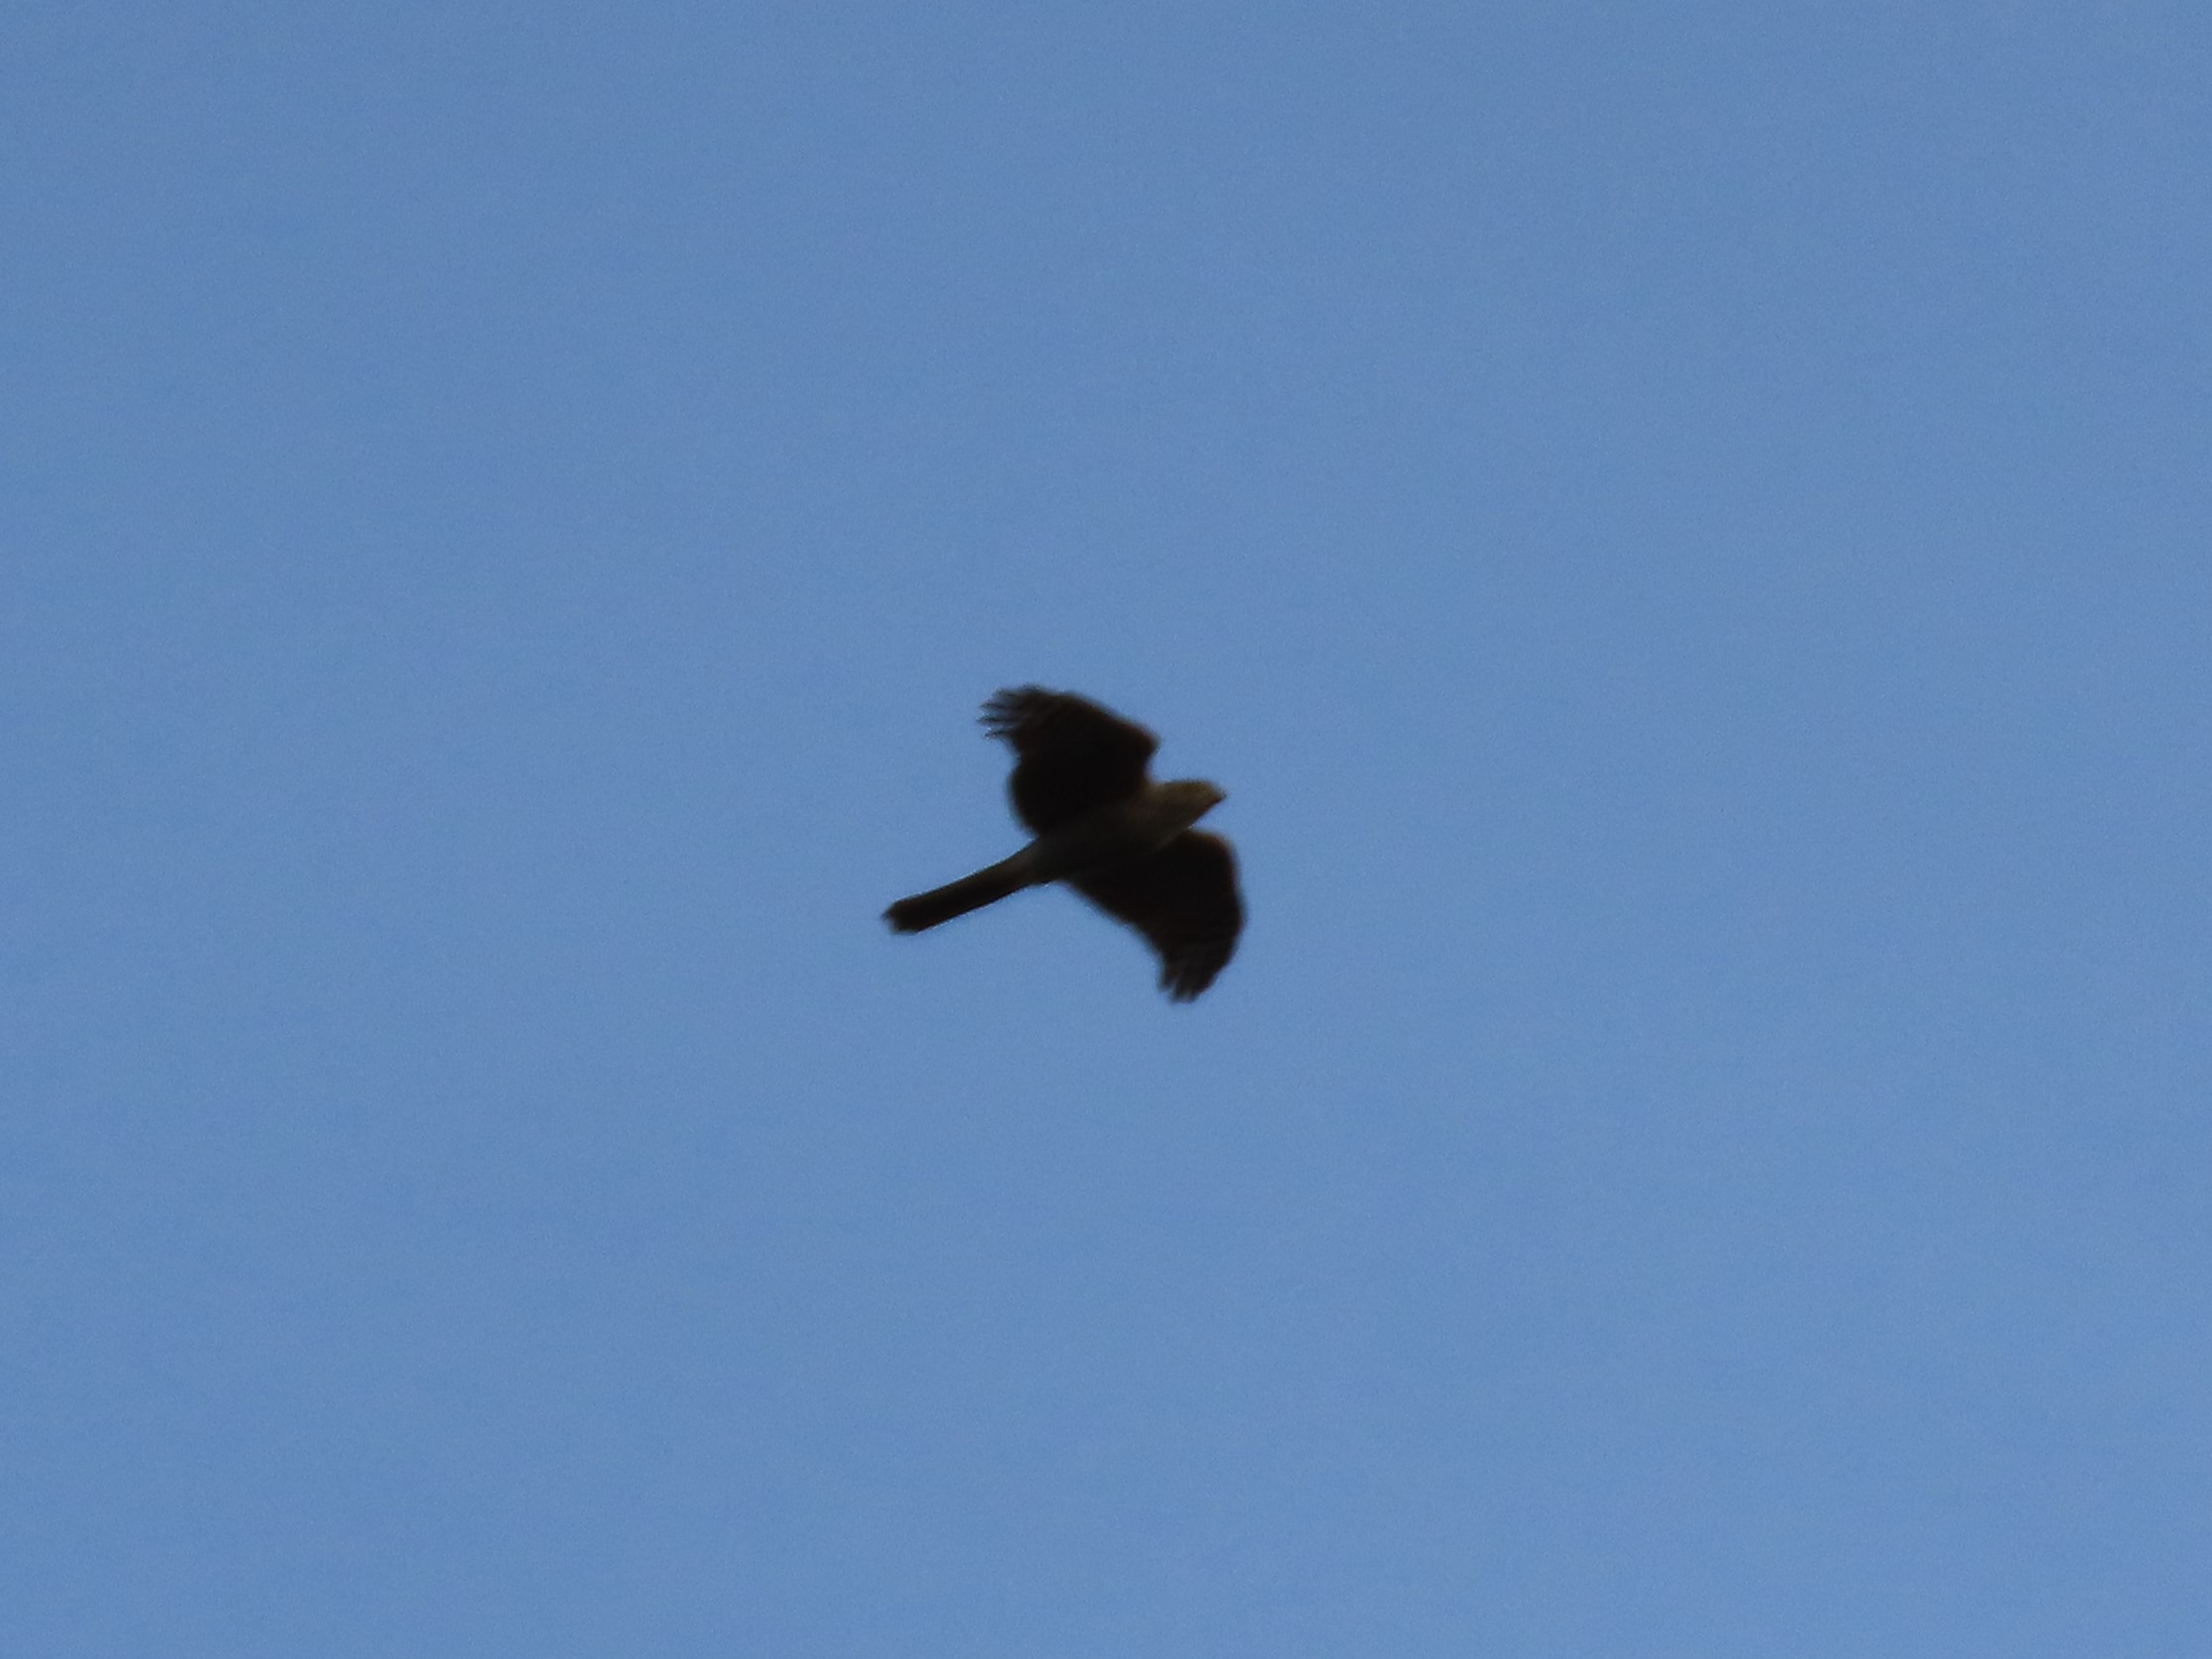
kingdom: Animalia
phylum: Chordata
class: Aves
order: Accipitriformes
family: Accipitridae
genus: Accipiter
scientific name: Accipiter nisus
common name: Spurvehøg
